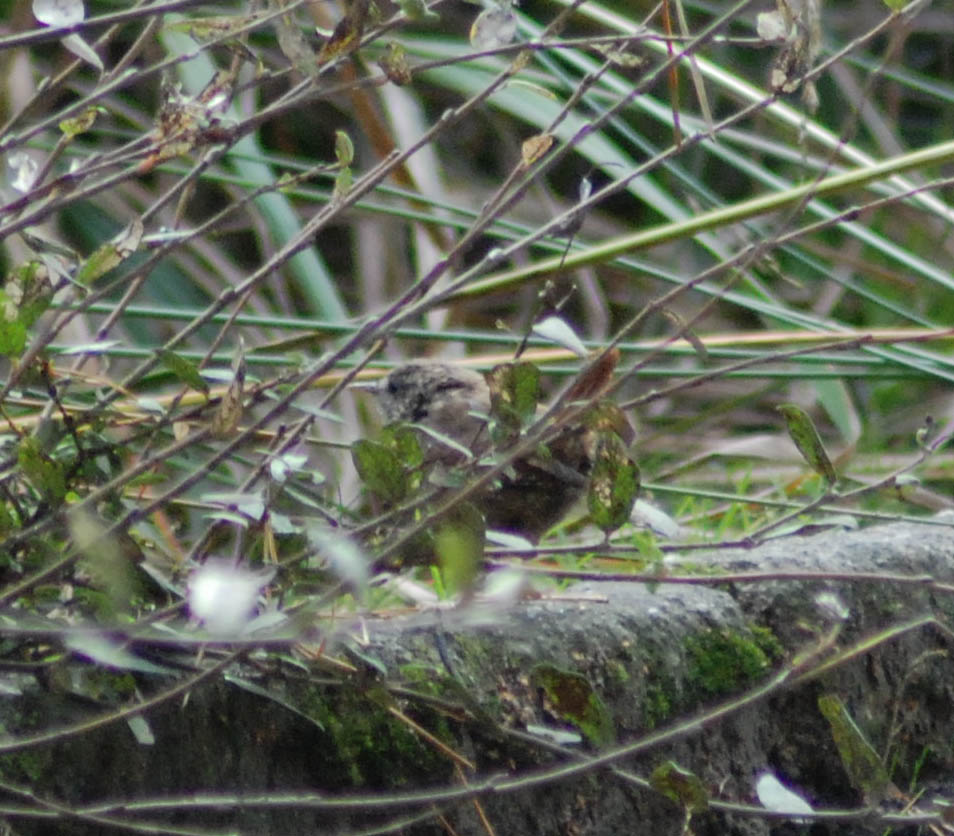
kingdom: Animalia
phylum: Chordata
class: Aves
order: Passeriformes
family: Troglodytidae
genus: Troglodytes
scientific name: Troglodytes troglodytes
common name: Eurasian wren
